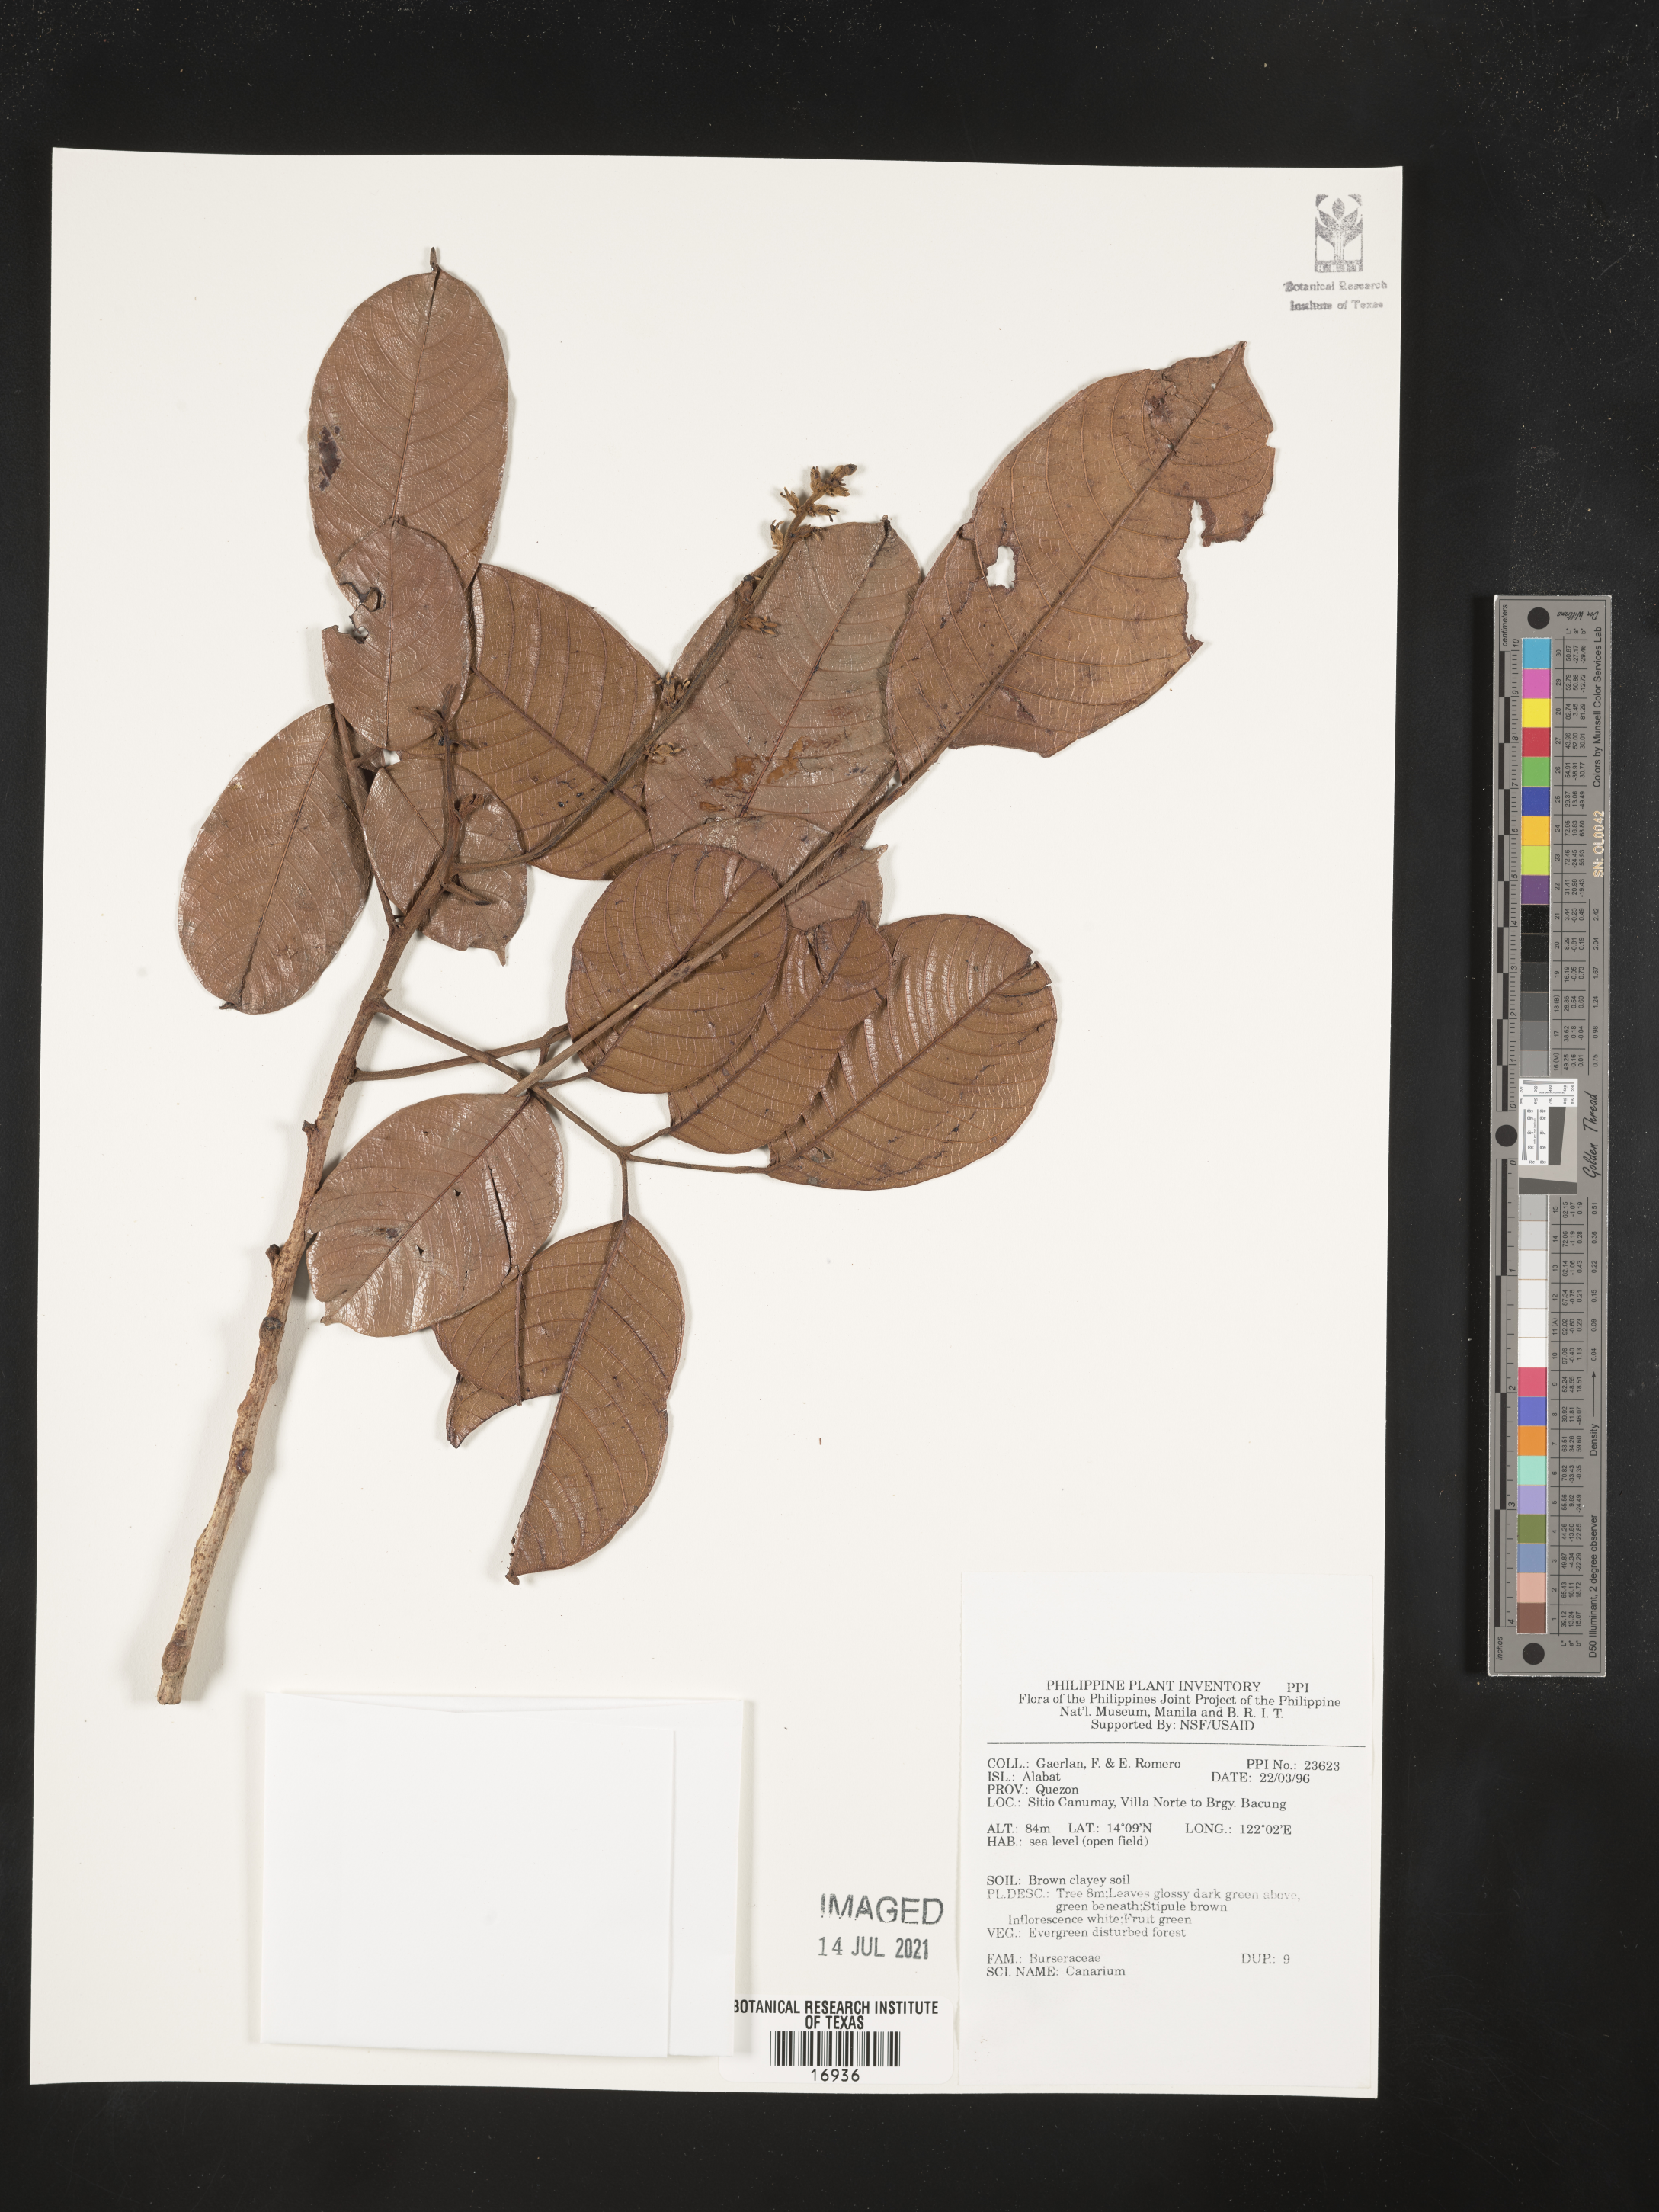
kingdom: Plantae
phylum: Tracheophyta
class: Magnoliopsida
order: Sapindales
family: Burseraceae
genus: Canarium
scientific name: Canarium
